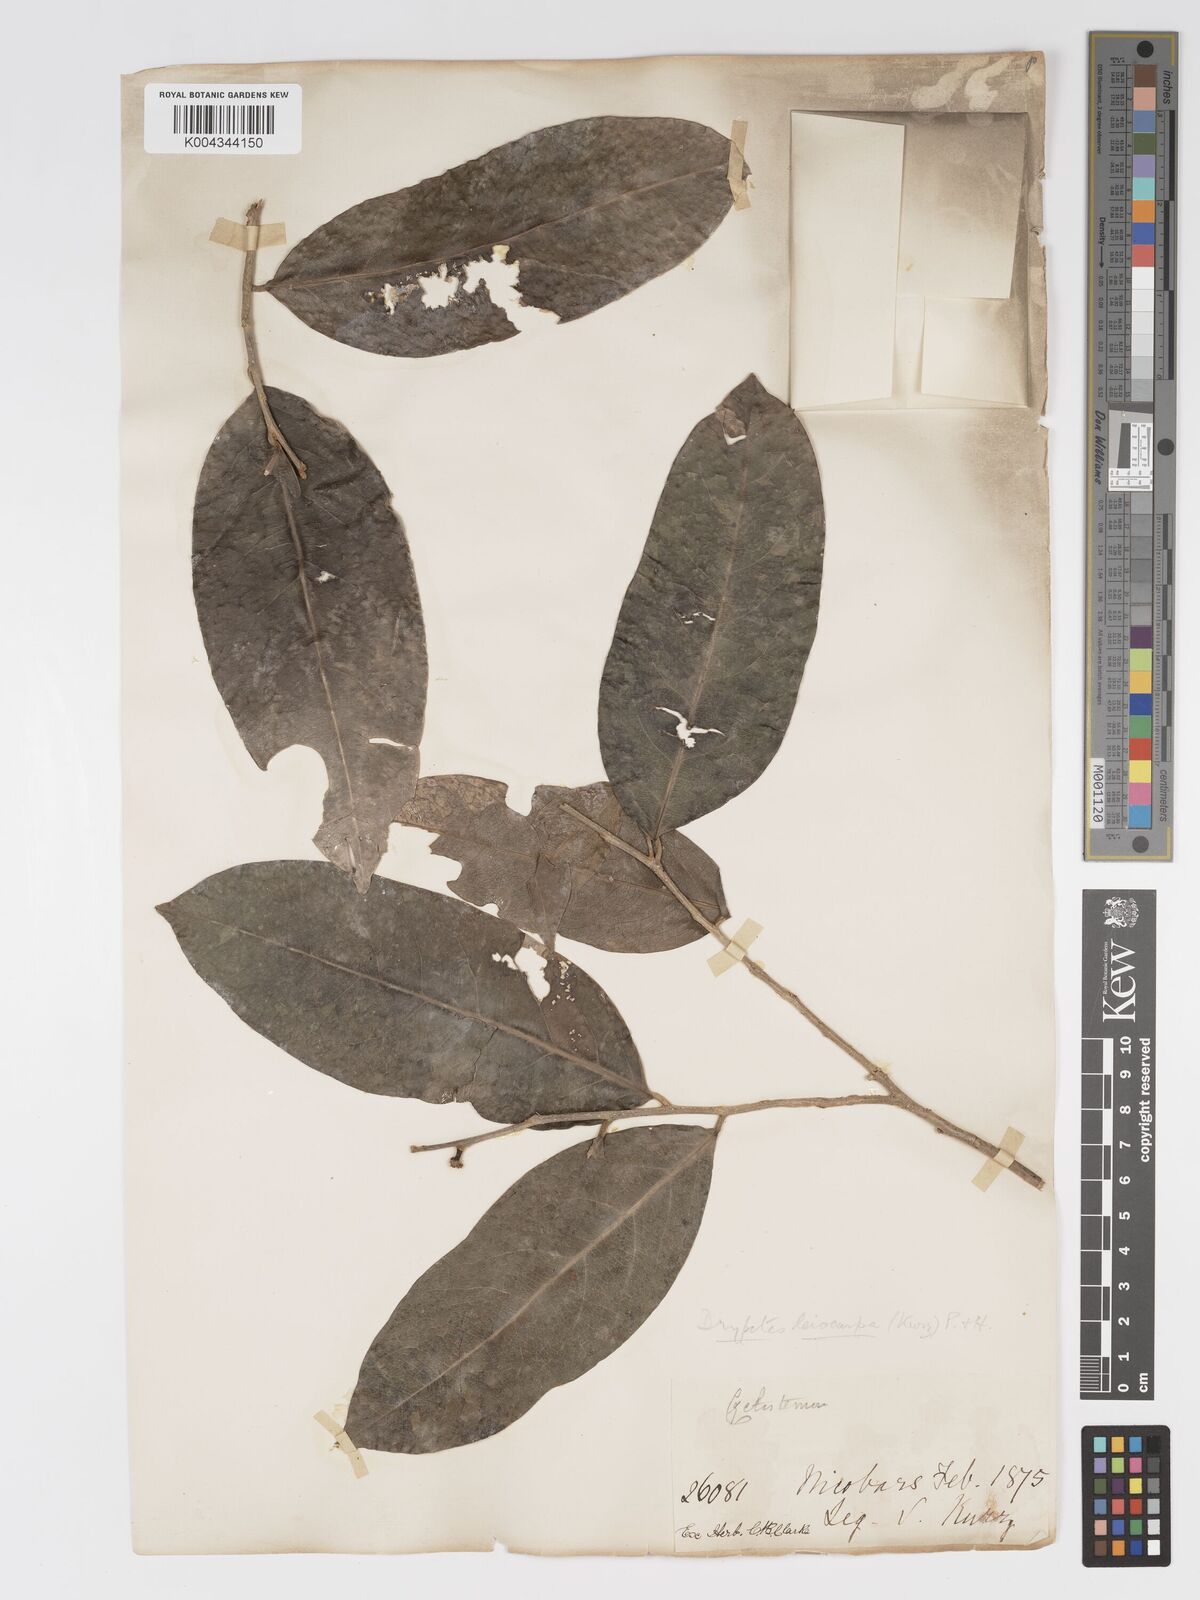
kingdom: Plantae
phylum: Tracheophyta
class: Magnoliopsida
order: Malpighiales
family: Putranjivaceae
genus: Drypetes
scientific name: Drypetes leiocarpa
